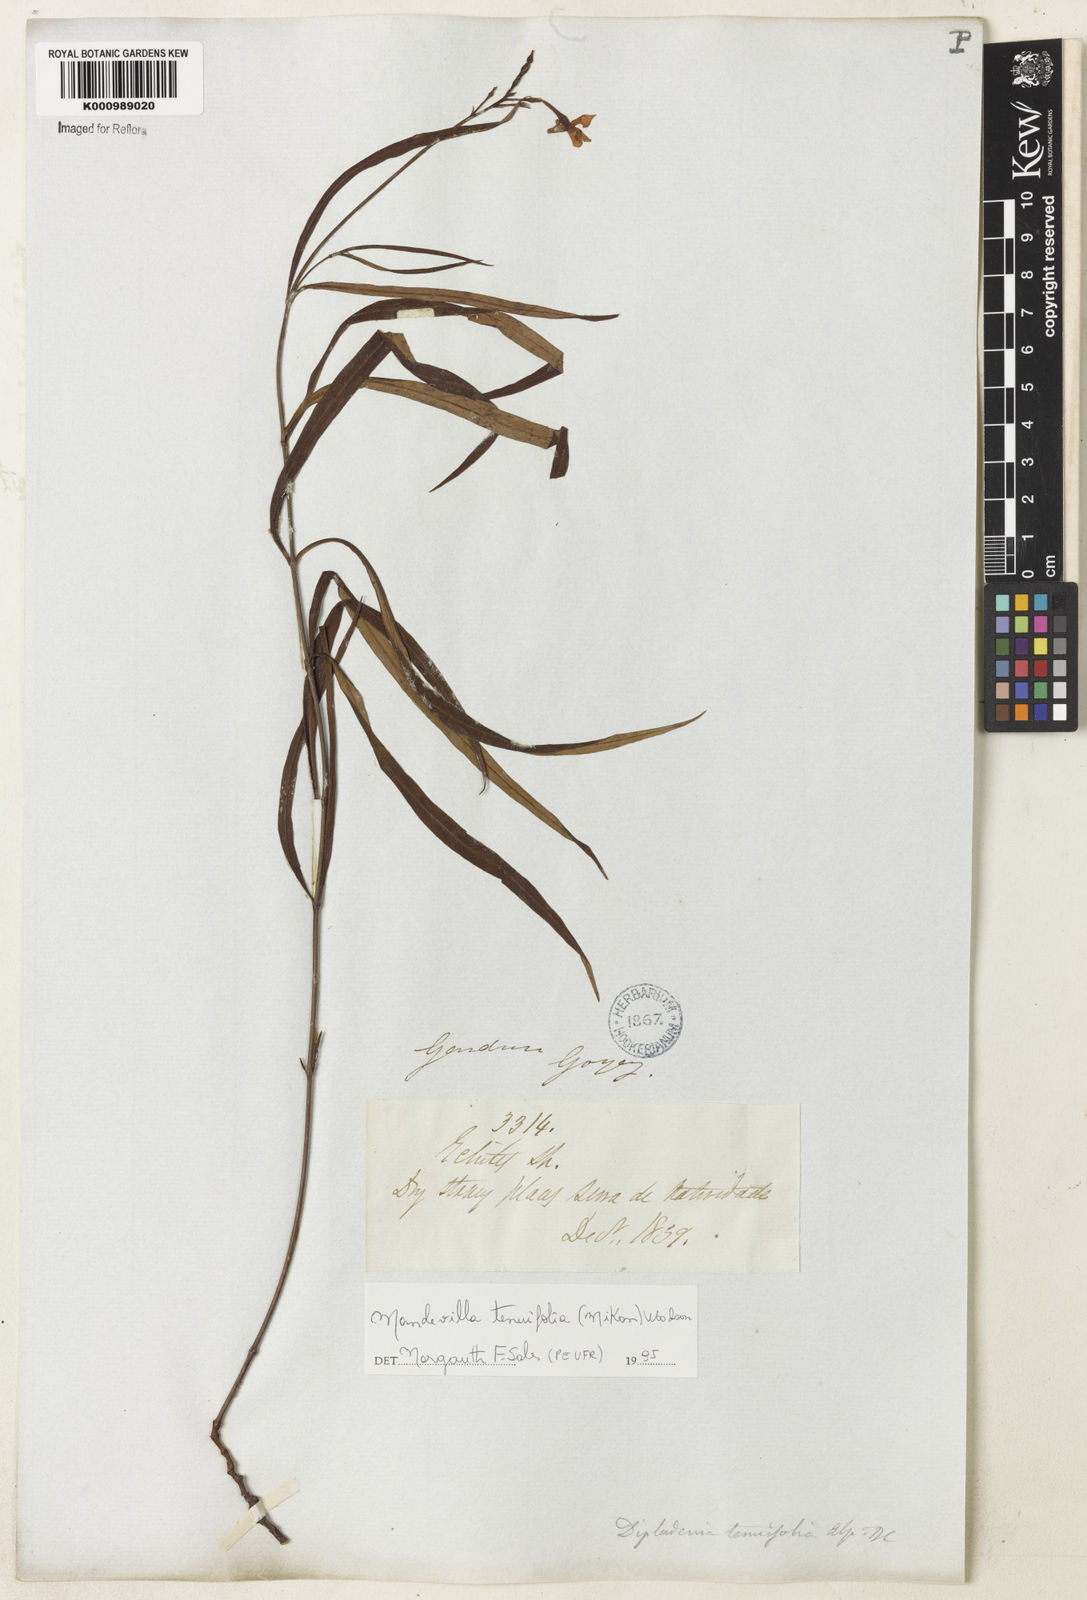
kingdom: Plantae
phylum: Tracheophyta
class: Magnoliopsida
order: Gentianales
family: Apocynaceae
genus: Mandevilla
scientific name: Mandevilla tenuifolia
